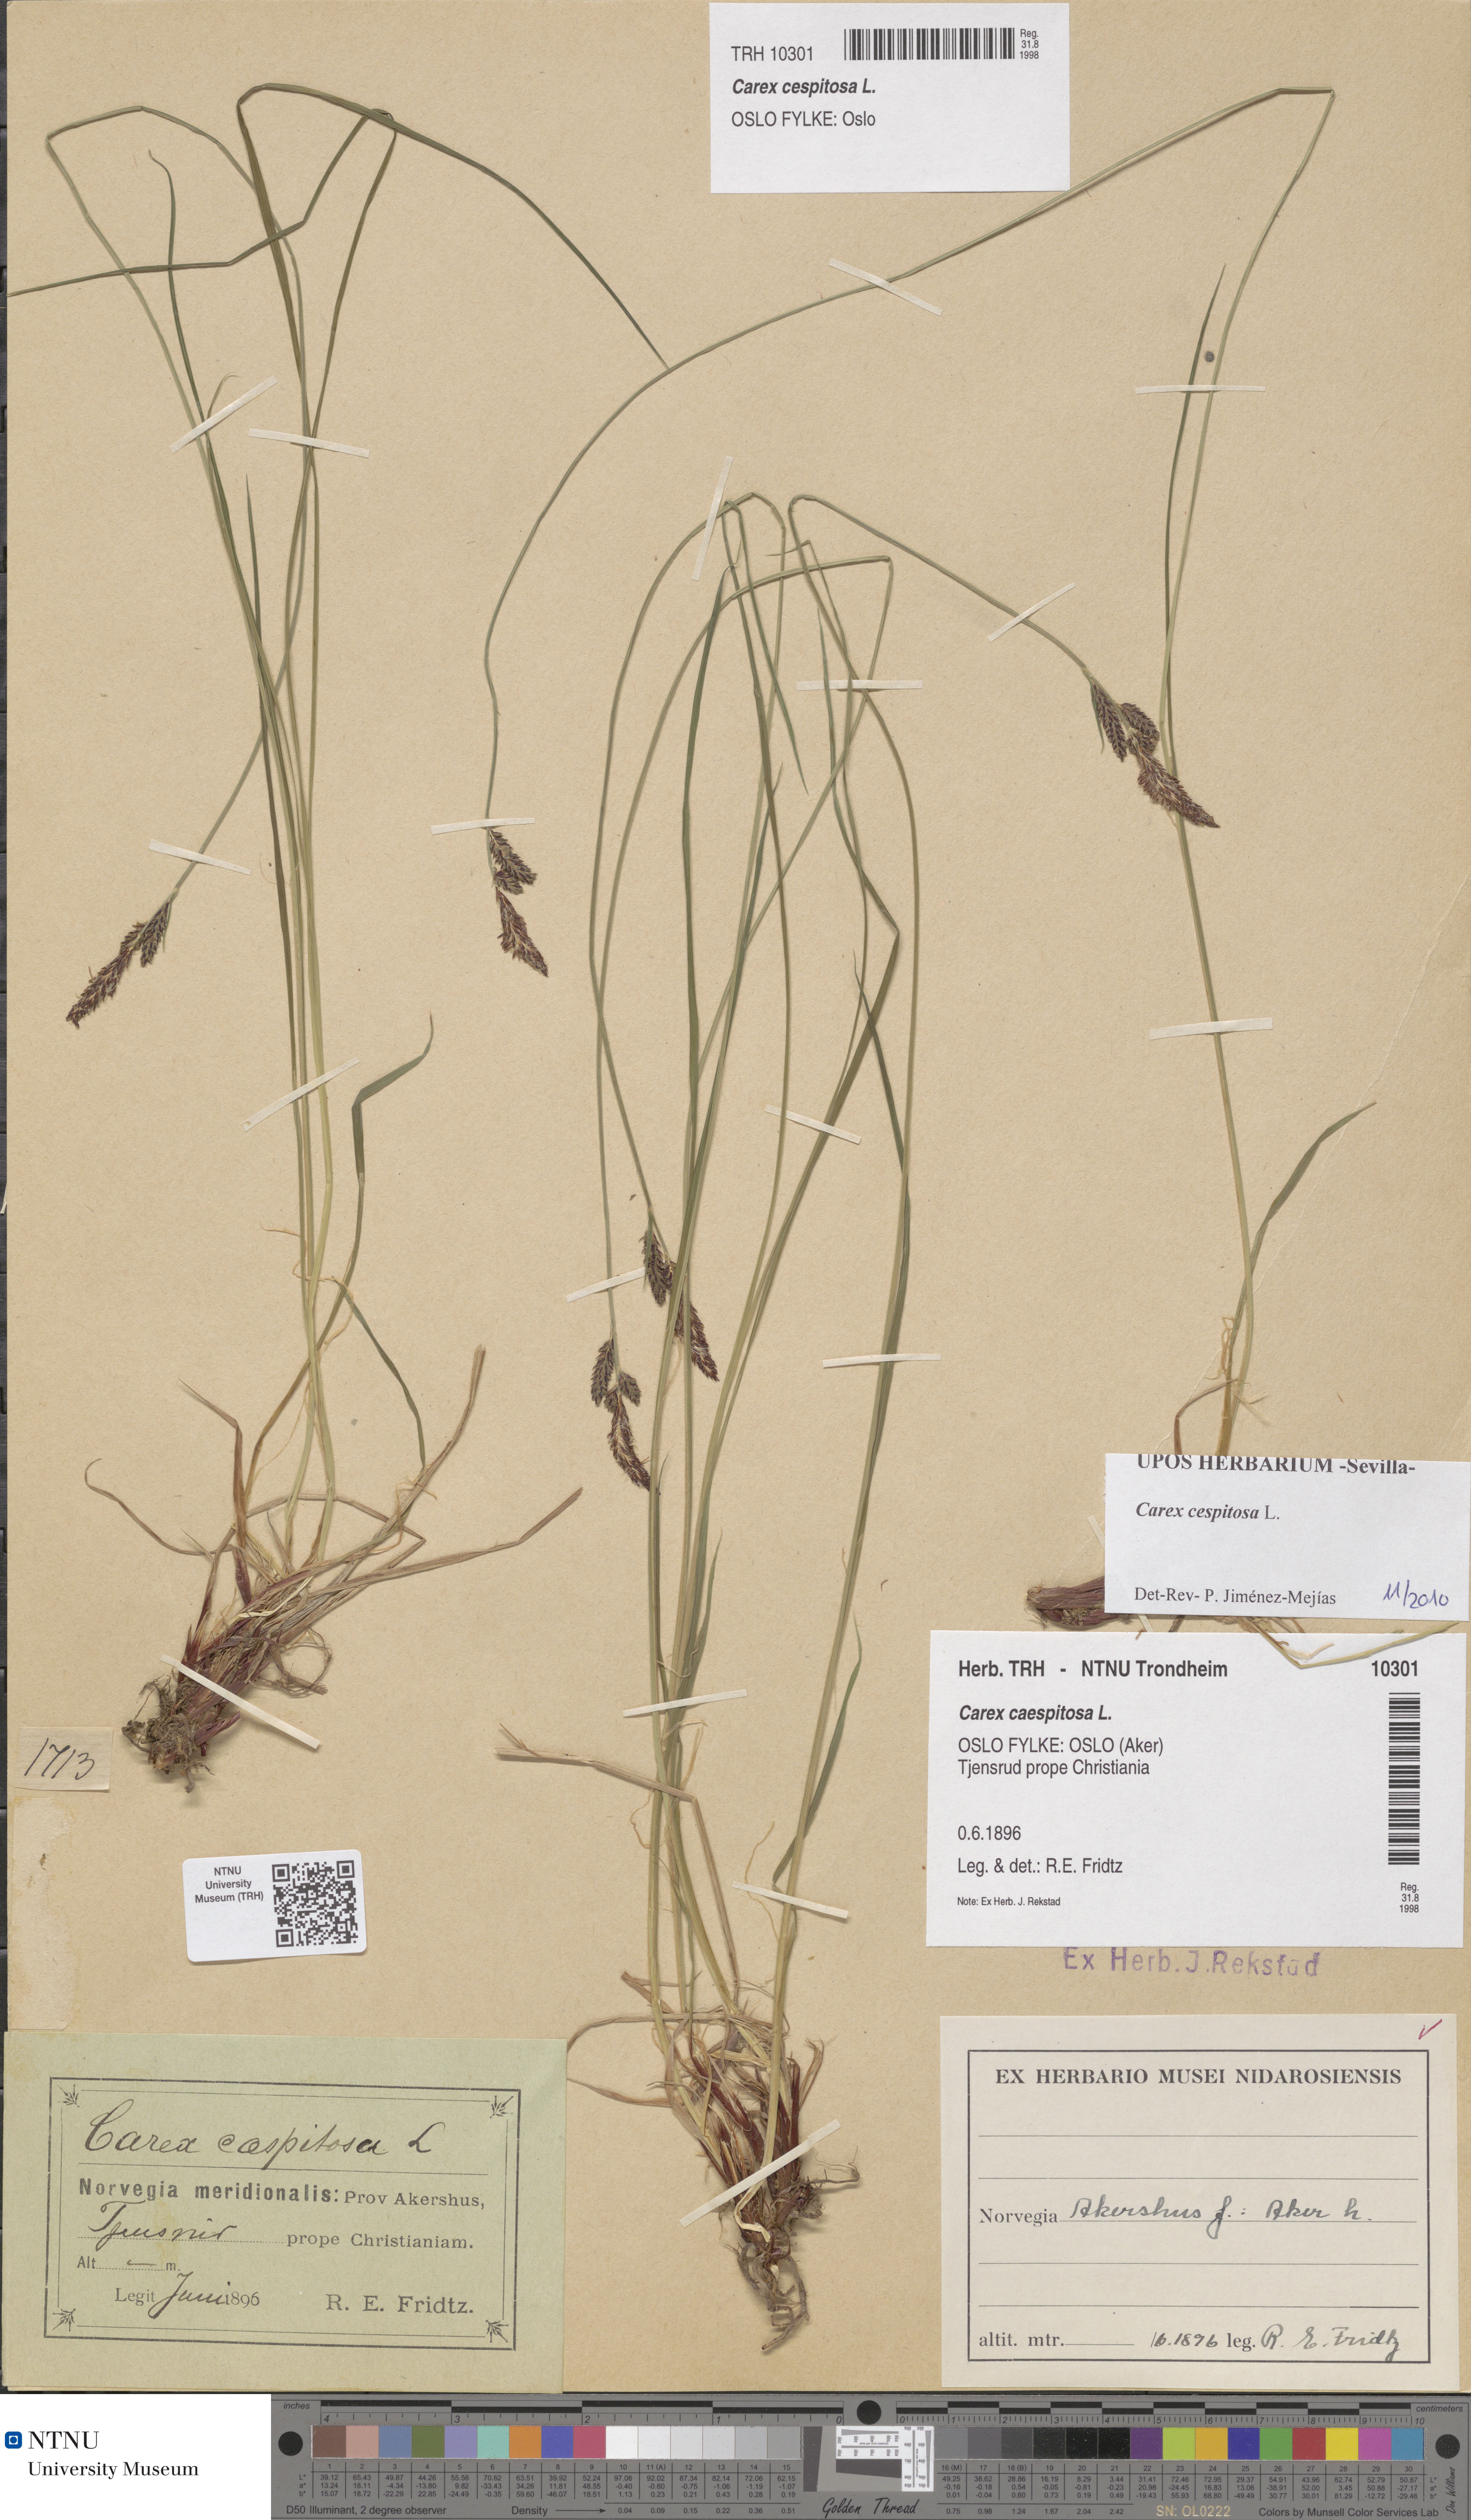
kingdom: Plantae
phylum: Tracheophyta
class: Liliopsida
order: Poales
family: Cyperaceae
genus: Carex
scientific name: Carex cespitosa
